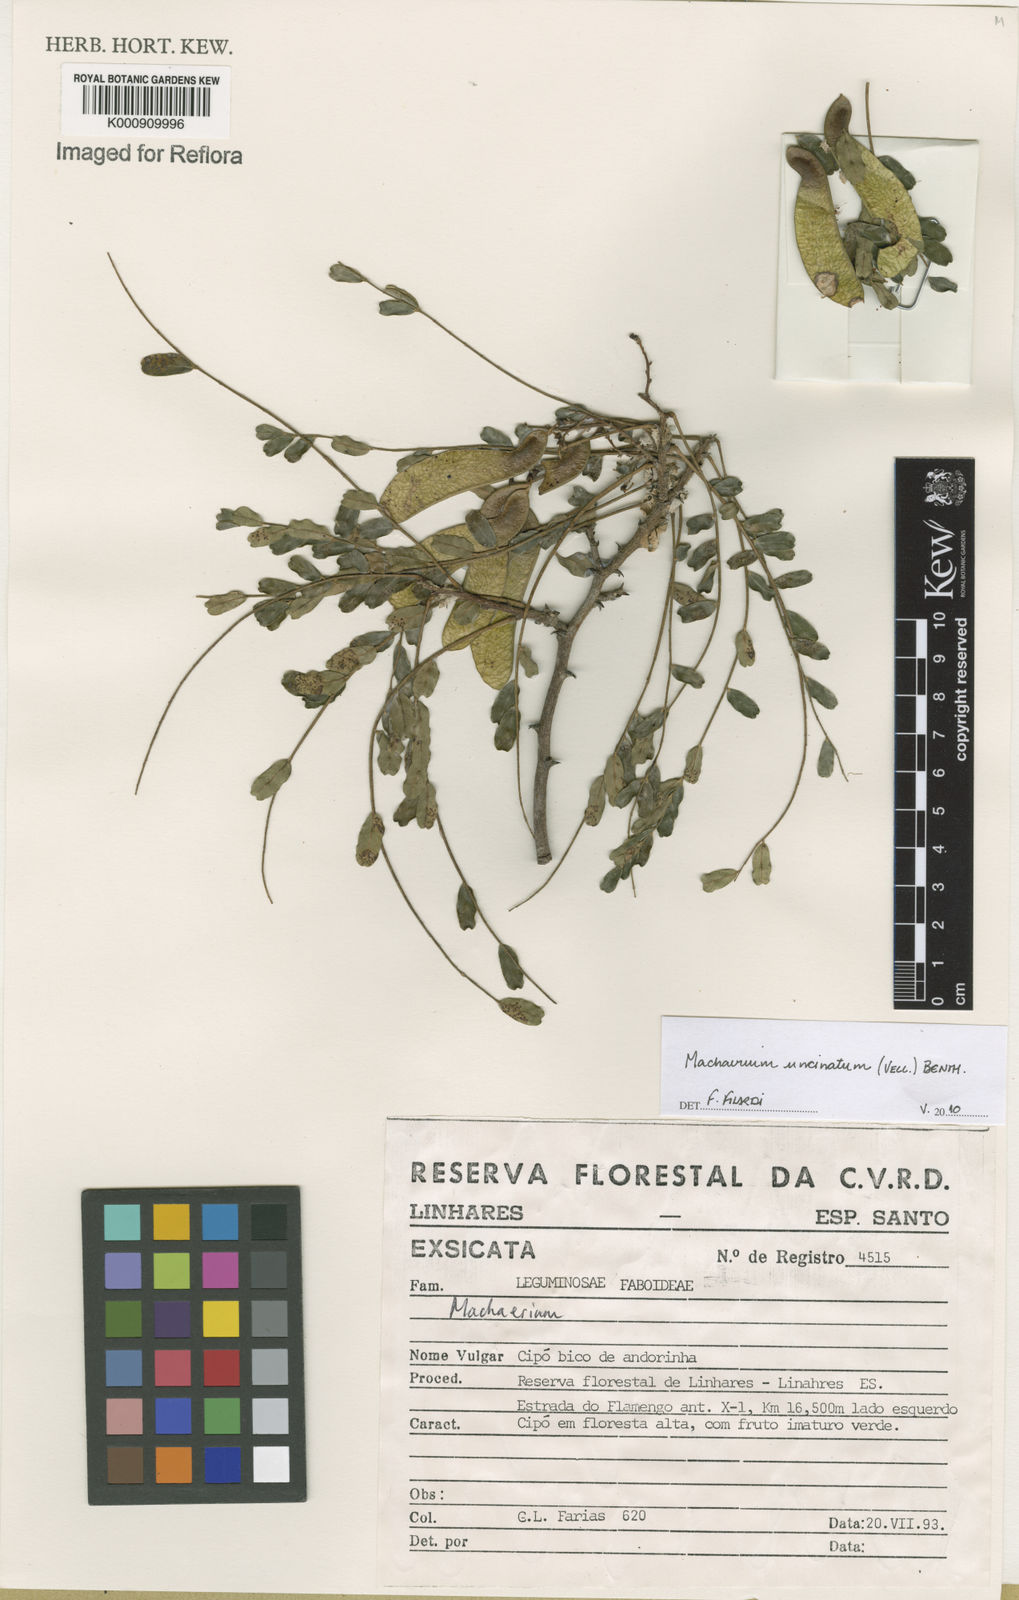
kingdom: Plantae
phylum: Tracheophyta
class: Magnoliopsida
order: Fabales
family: Fabaceae
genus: Machaerium
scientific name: Machaerium uncinatum
